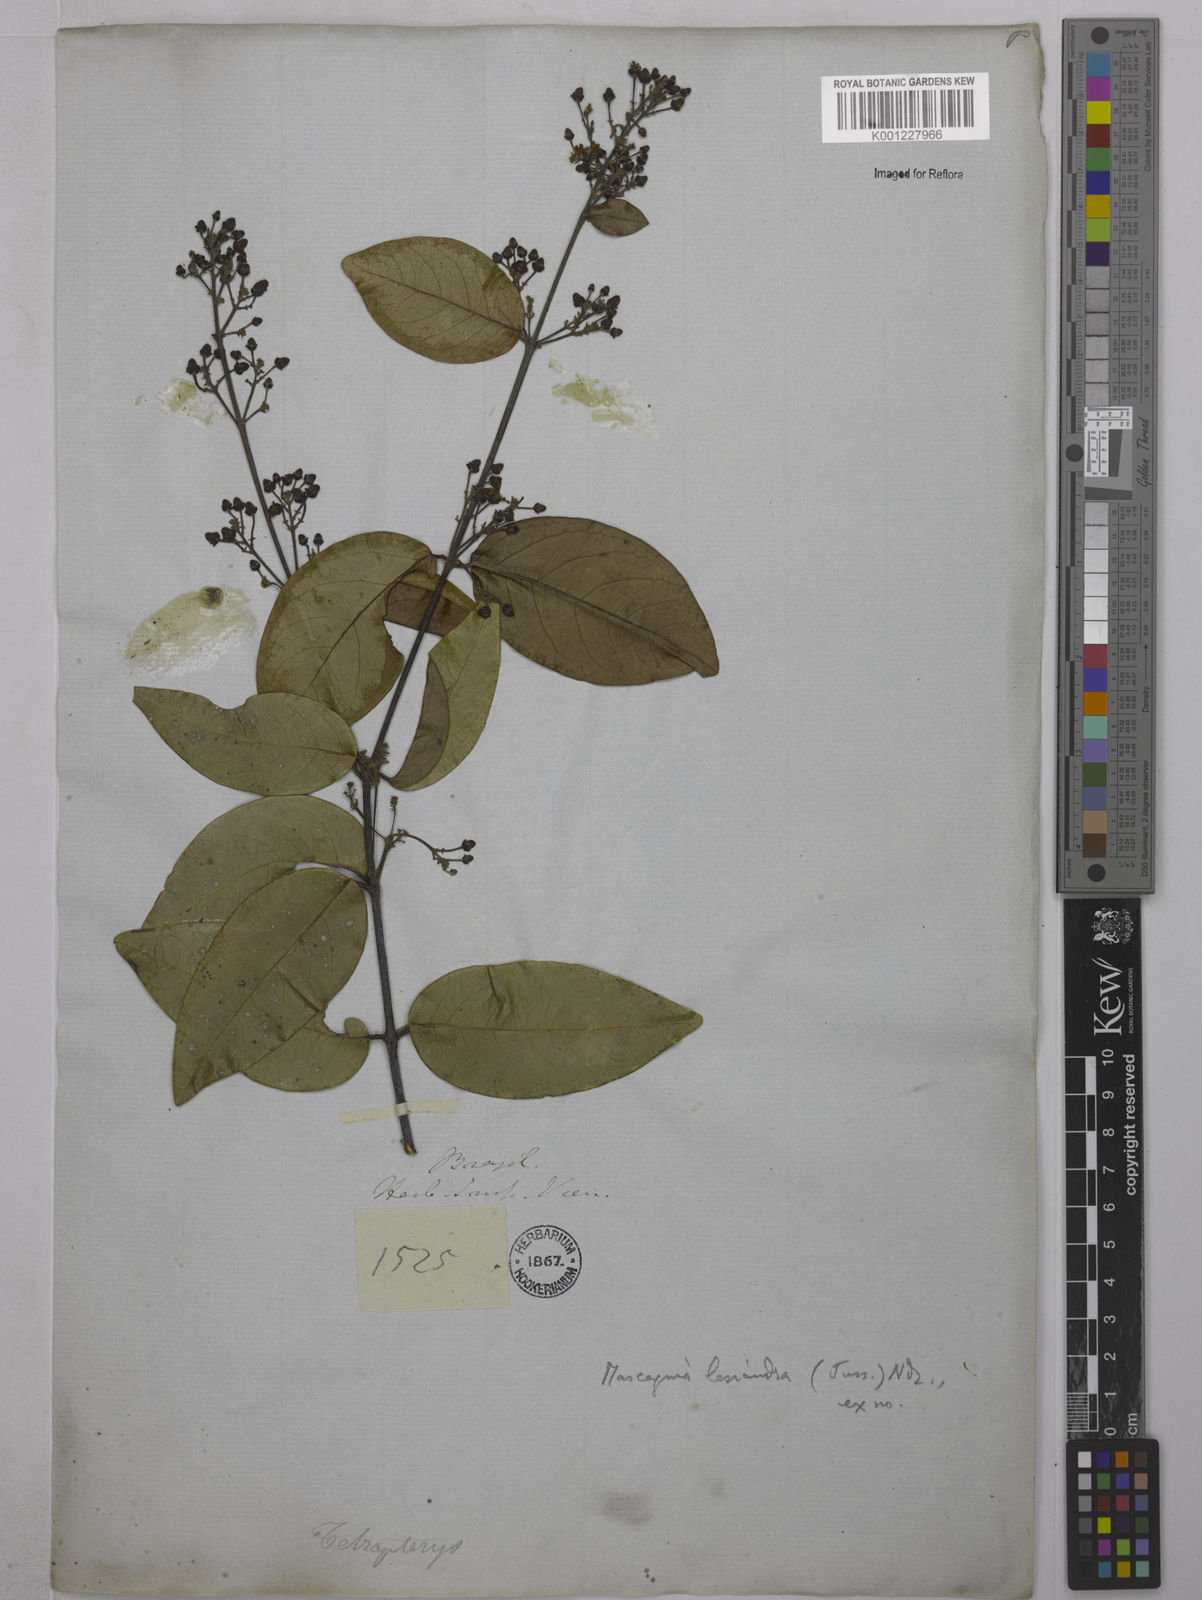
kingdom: Plantae
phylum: Tracheophyta
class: Magnoliopsida
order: Malpighiales
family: Malpighiaceae
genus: Niedenzuella
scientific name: Niedenzuella lasiandra
